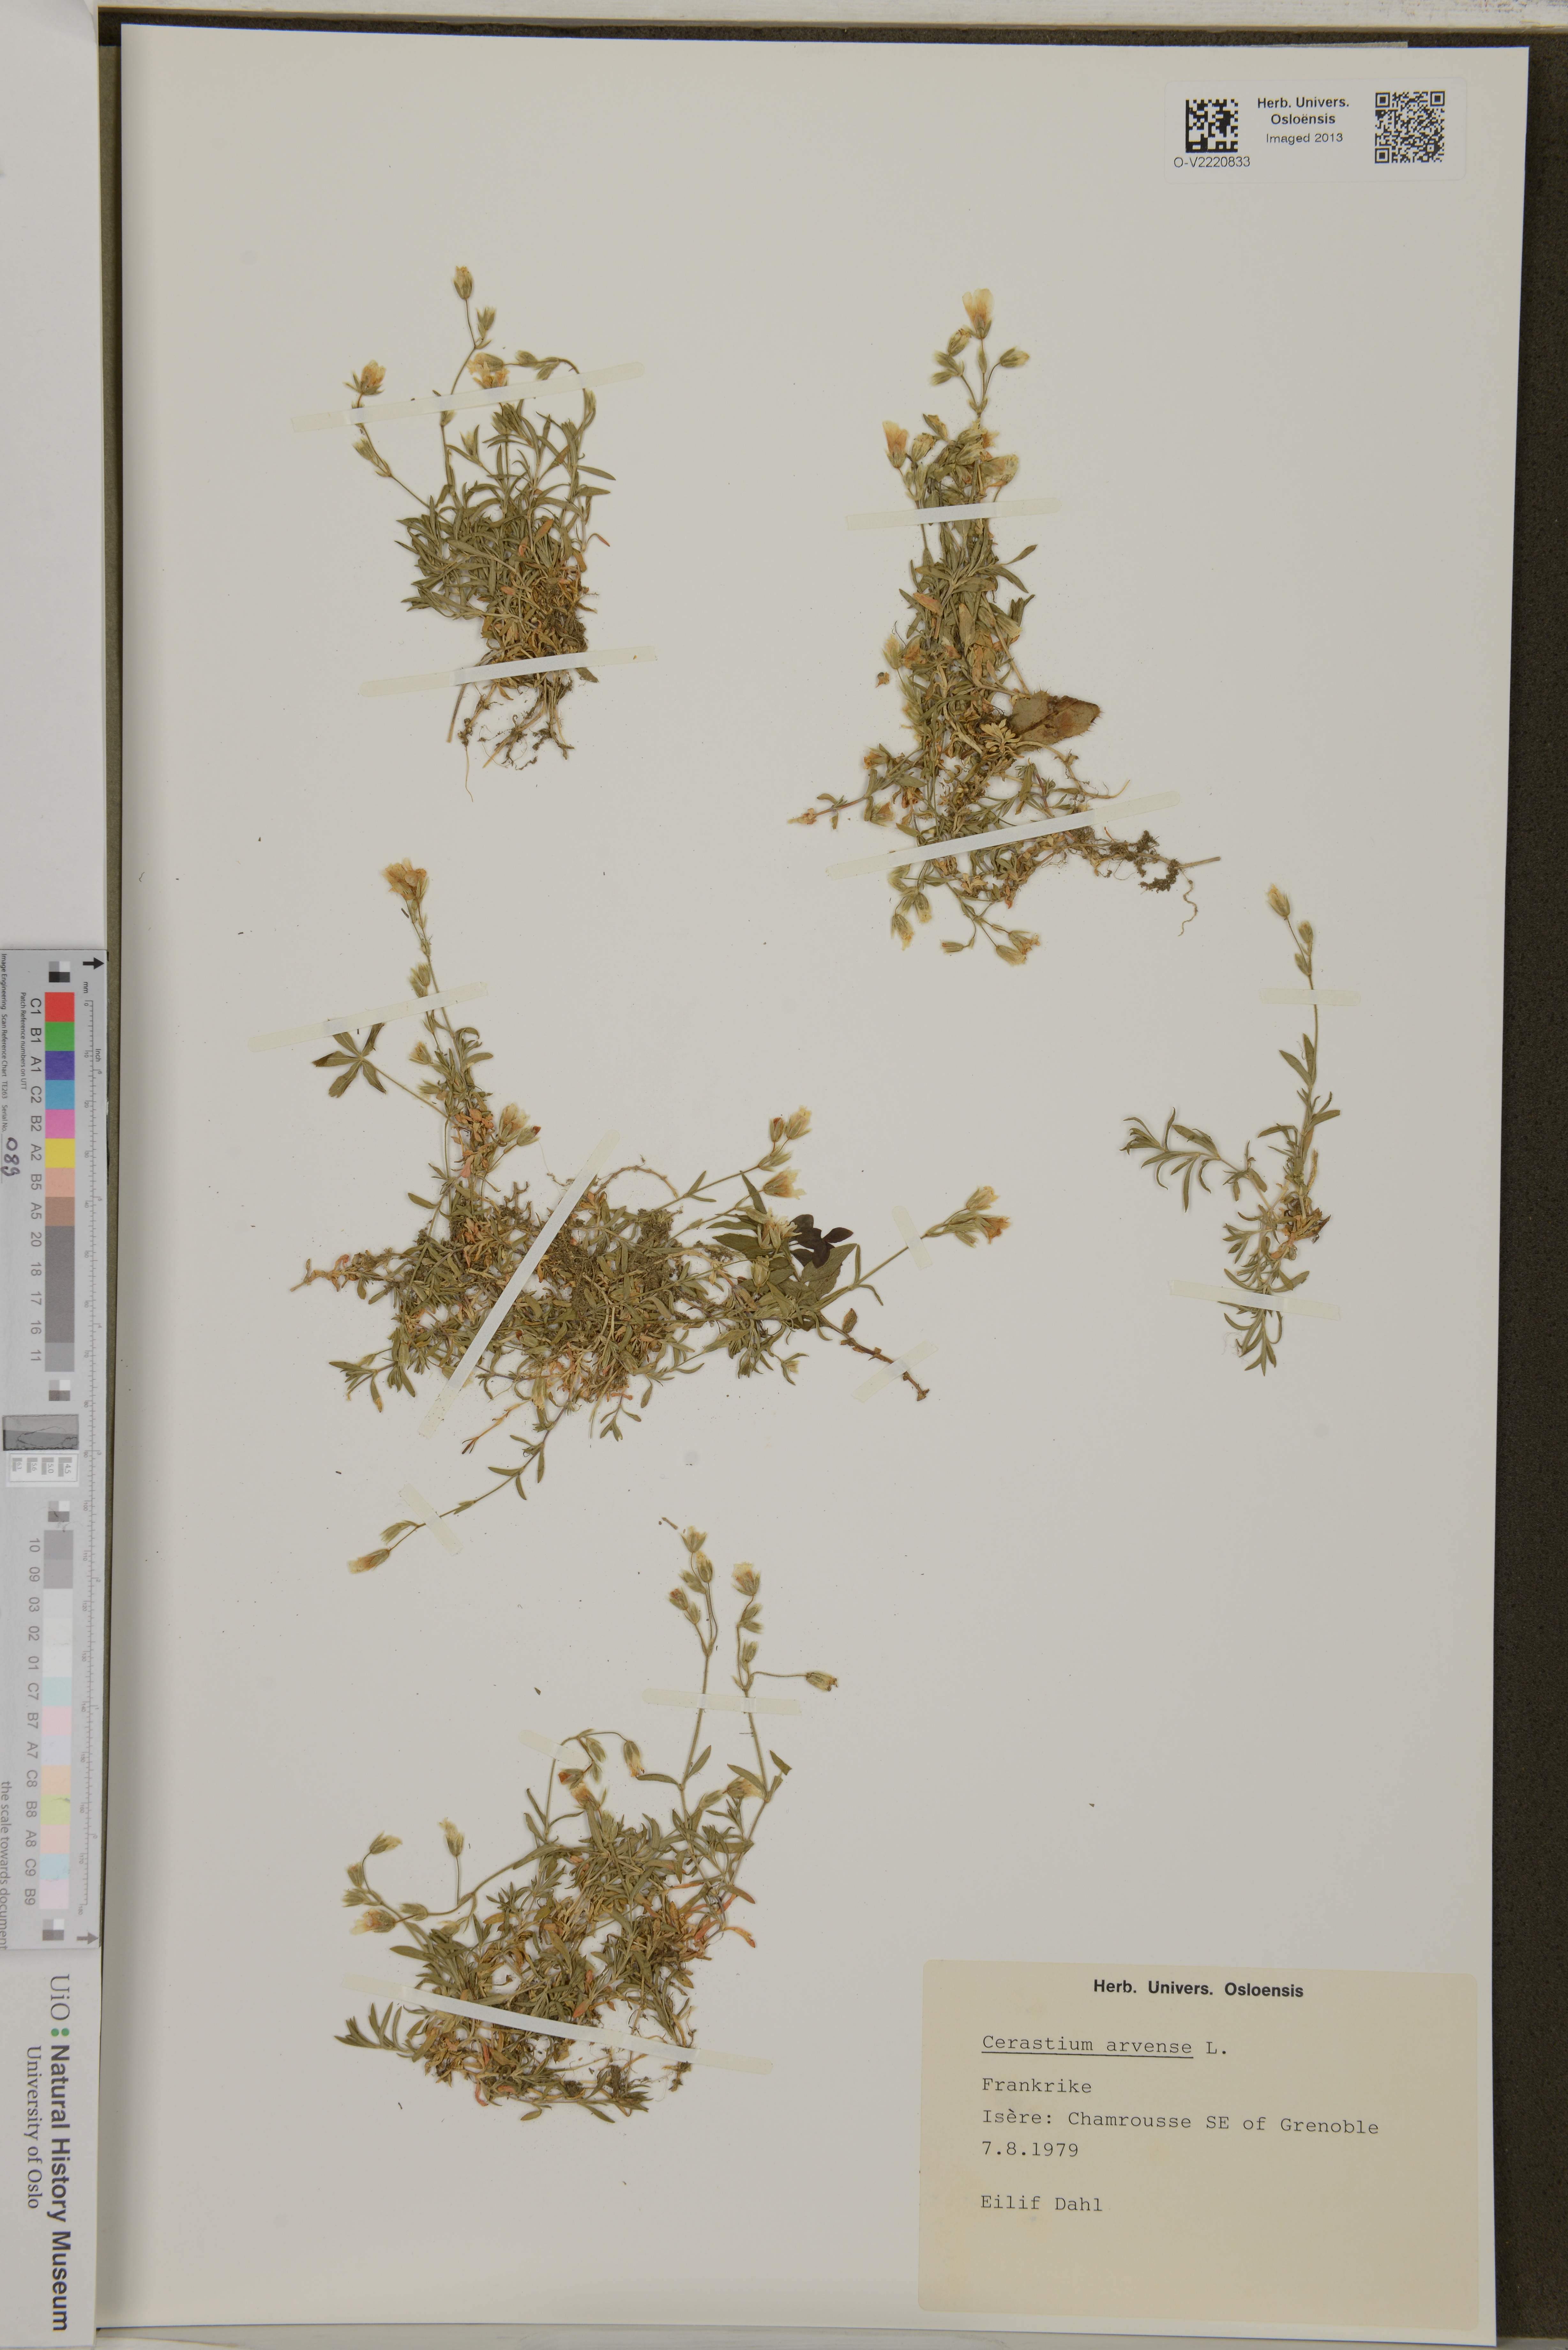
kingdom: Plantae
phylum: Tracheophyta
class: Magnoliopsida
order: Caryophyllales
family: Caryophyllaceae
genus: Cerastium
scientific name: Cerastium arvense
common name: Field mouse-ear
